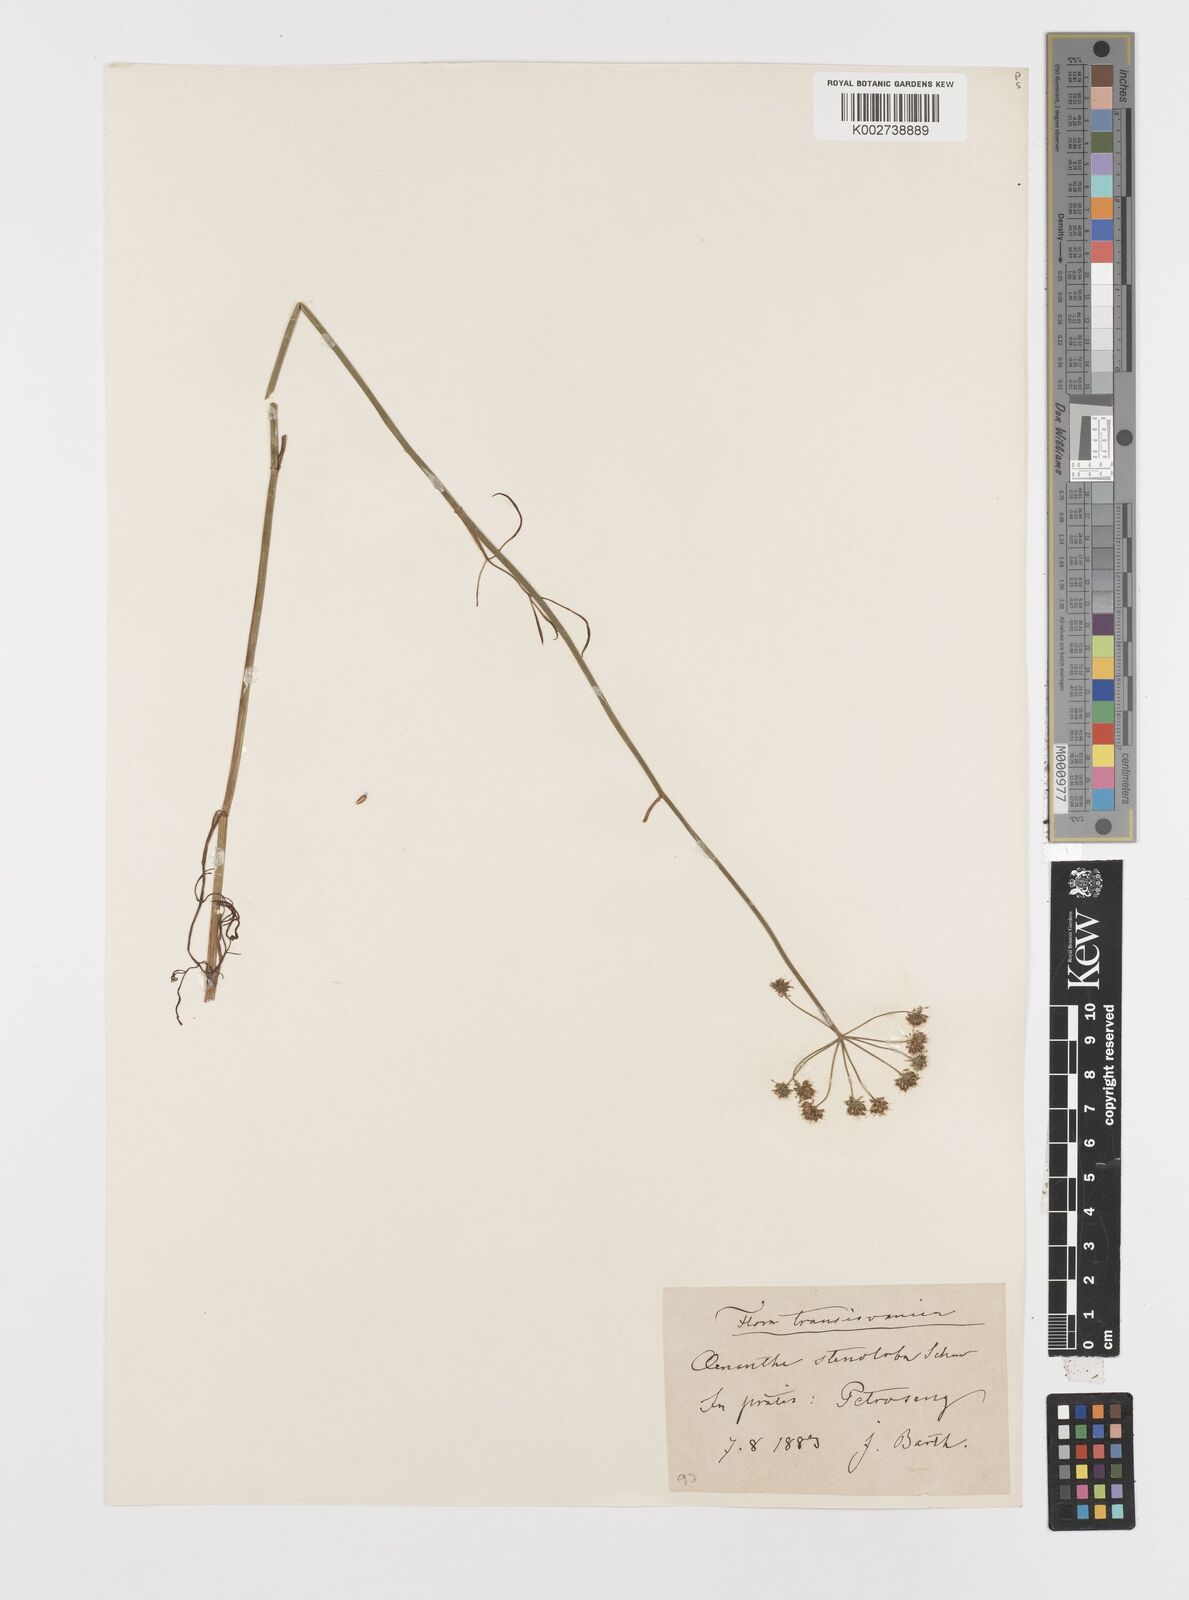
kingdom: Plantae
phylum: Tracheophyta
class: Magnoliopsida
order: Apiales
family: Apiaceae
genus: Oenanthe
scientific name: Oenanthe
